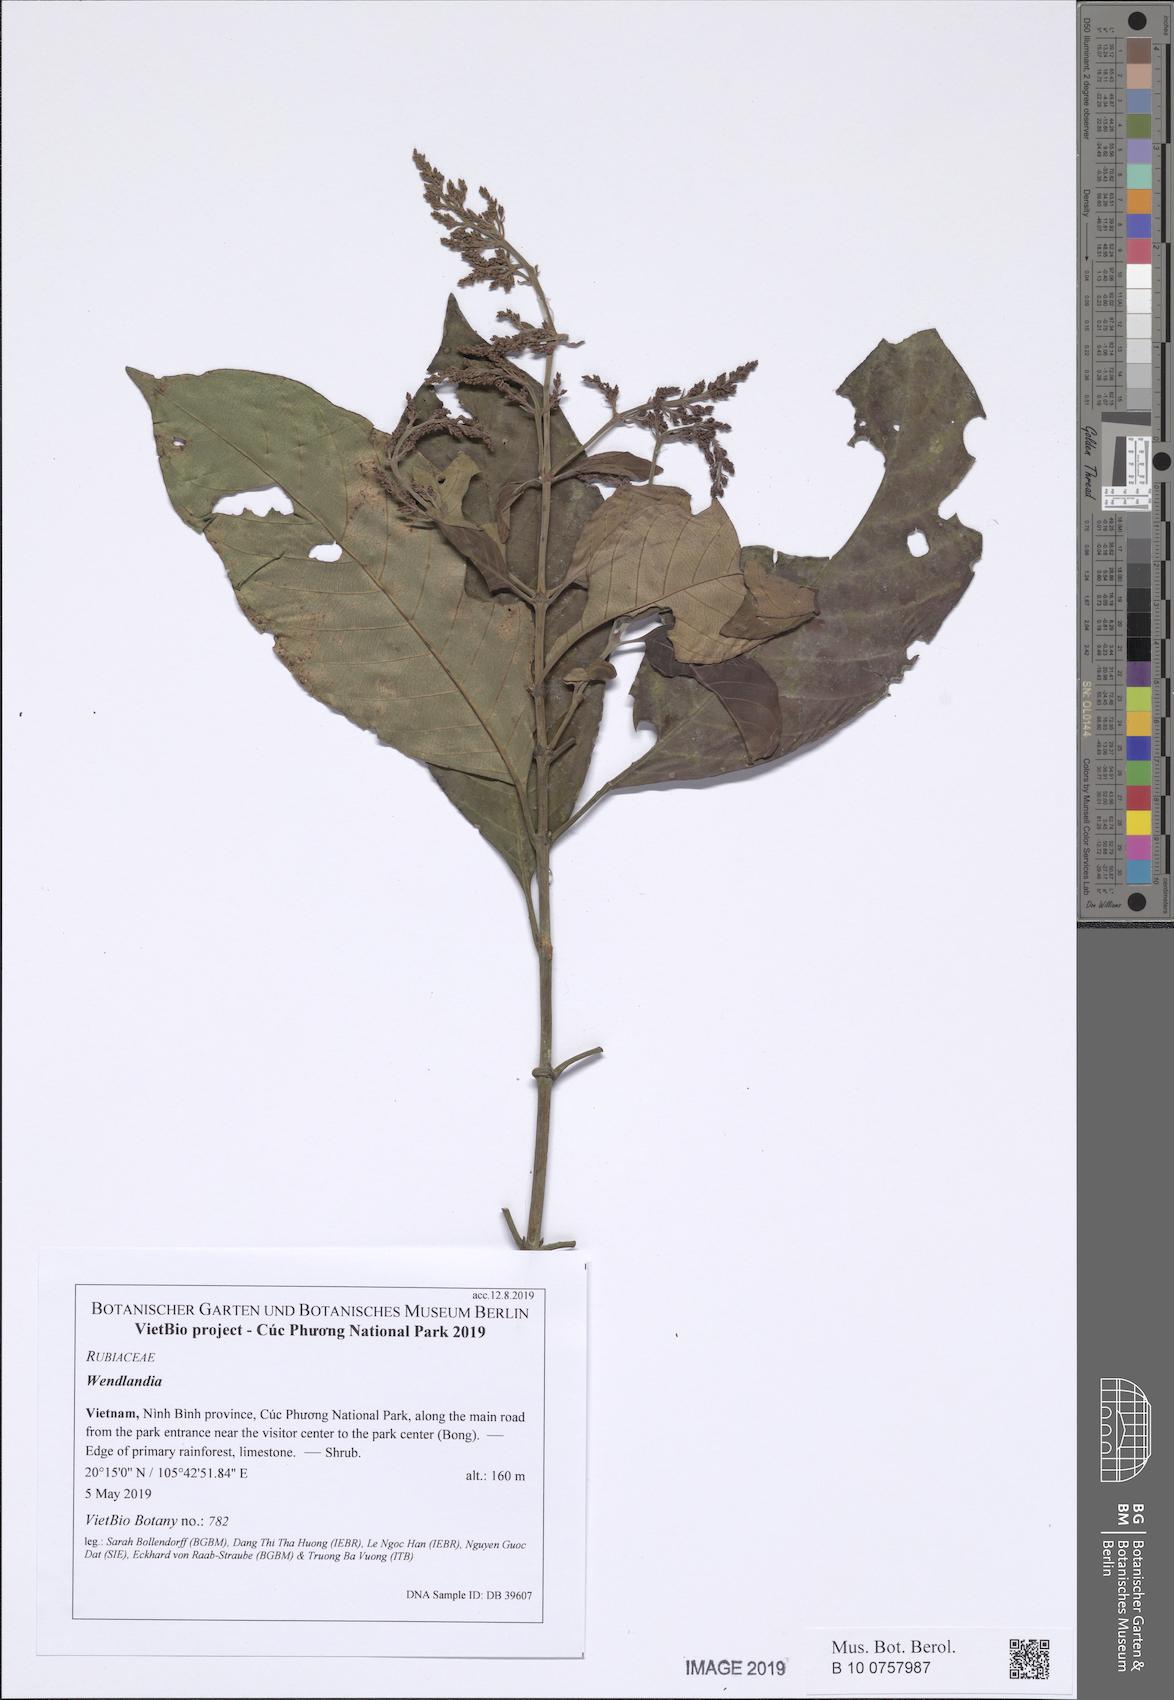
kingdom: Plantae
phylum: Tracheophyta
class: Magnoliopsida
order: Gentianales
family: Rubiaceae
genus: Wendlandia
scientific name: Wendlandia glabrata
